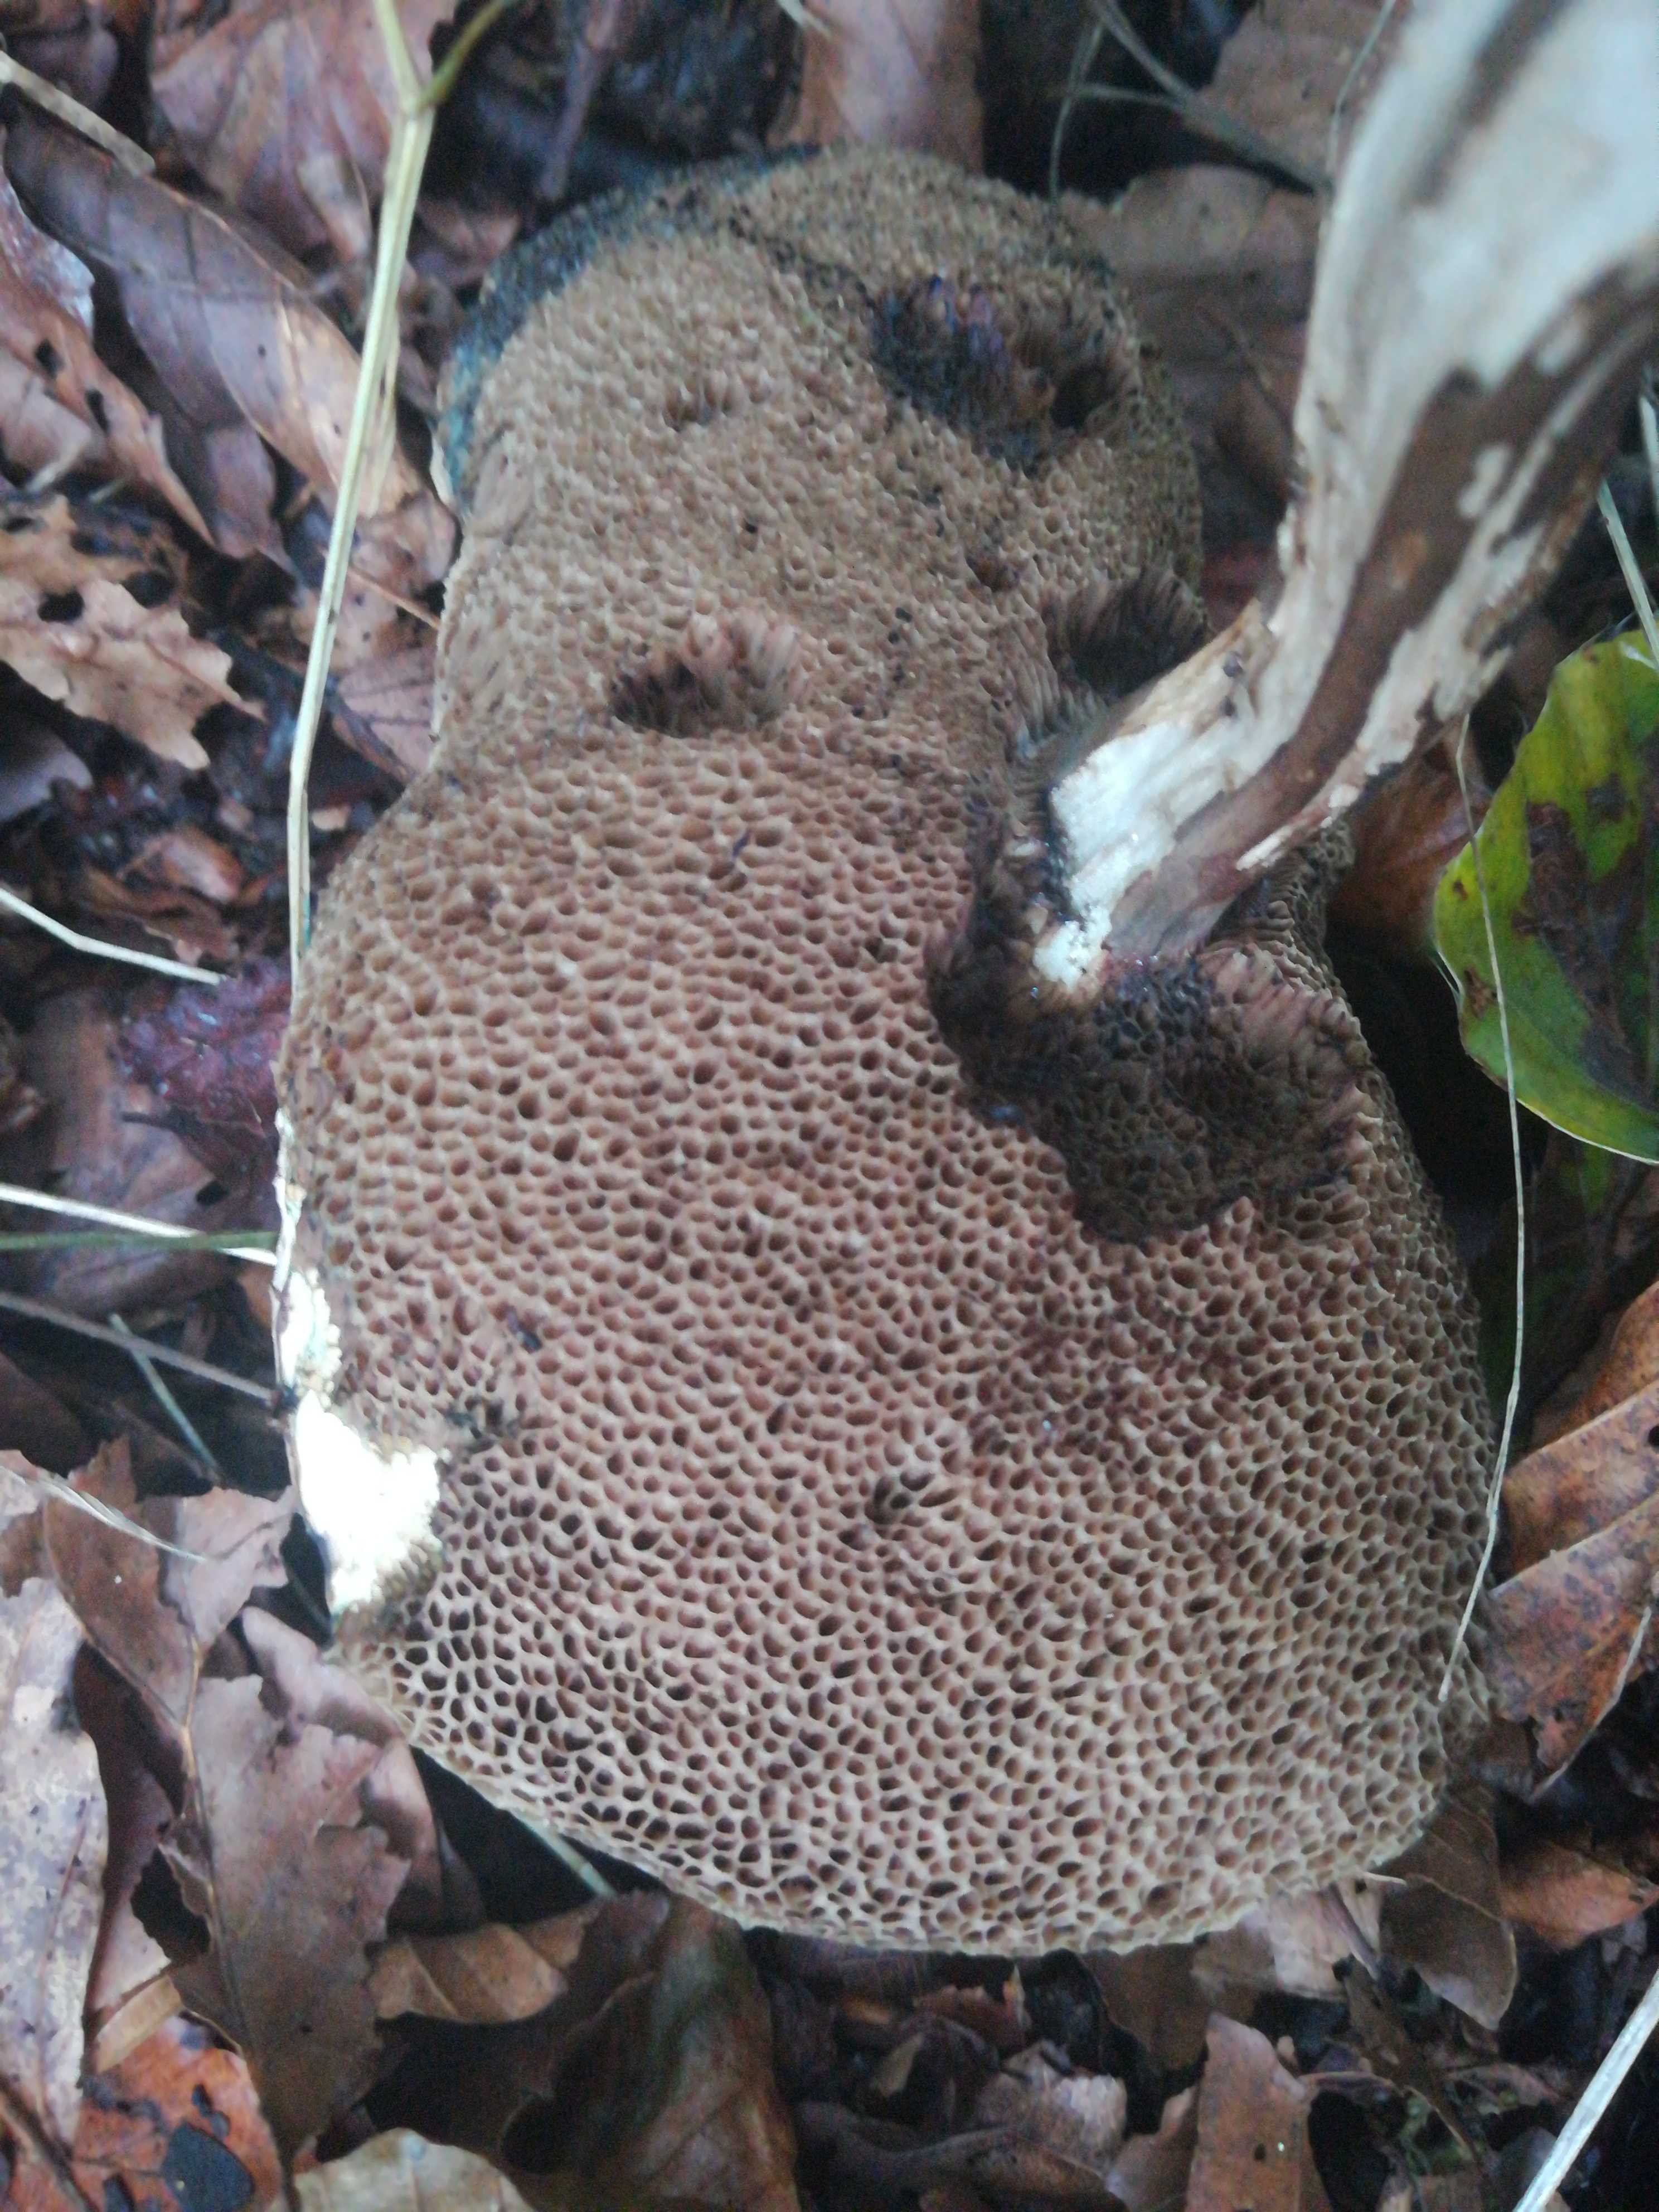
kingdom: Fungi
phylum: Basidiomycota
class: Agaricomycetes
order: Boletales
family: Boletaceae
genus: Porphyrellus
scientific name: Porphyrellus porphyrosporus
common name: sodrørhat
